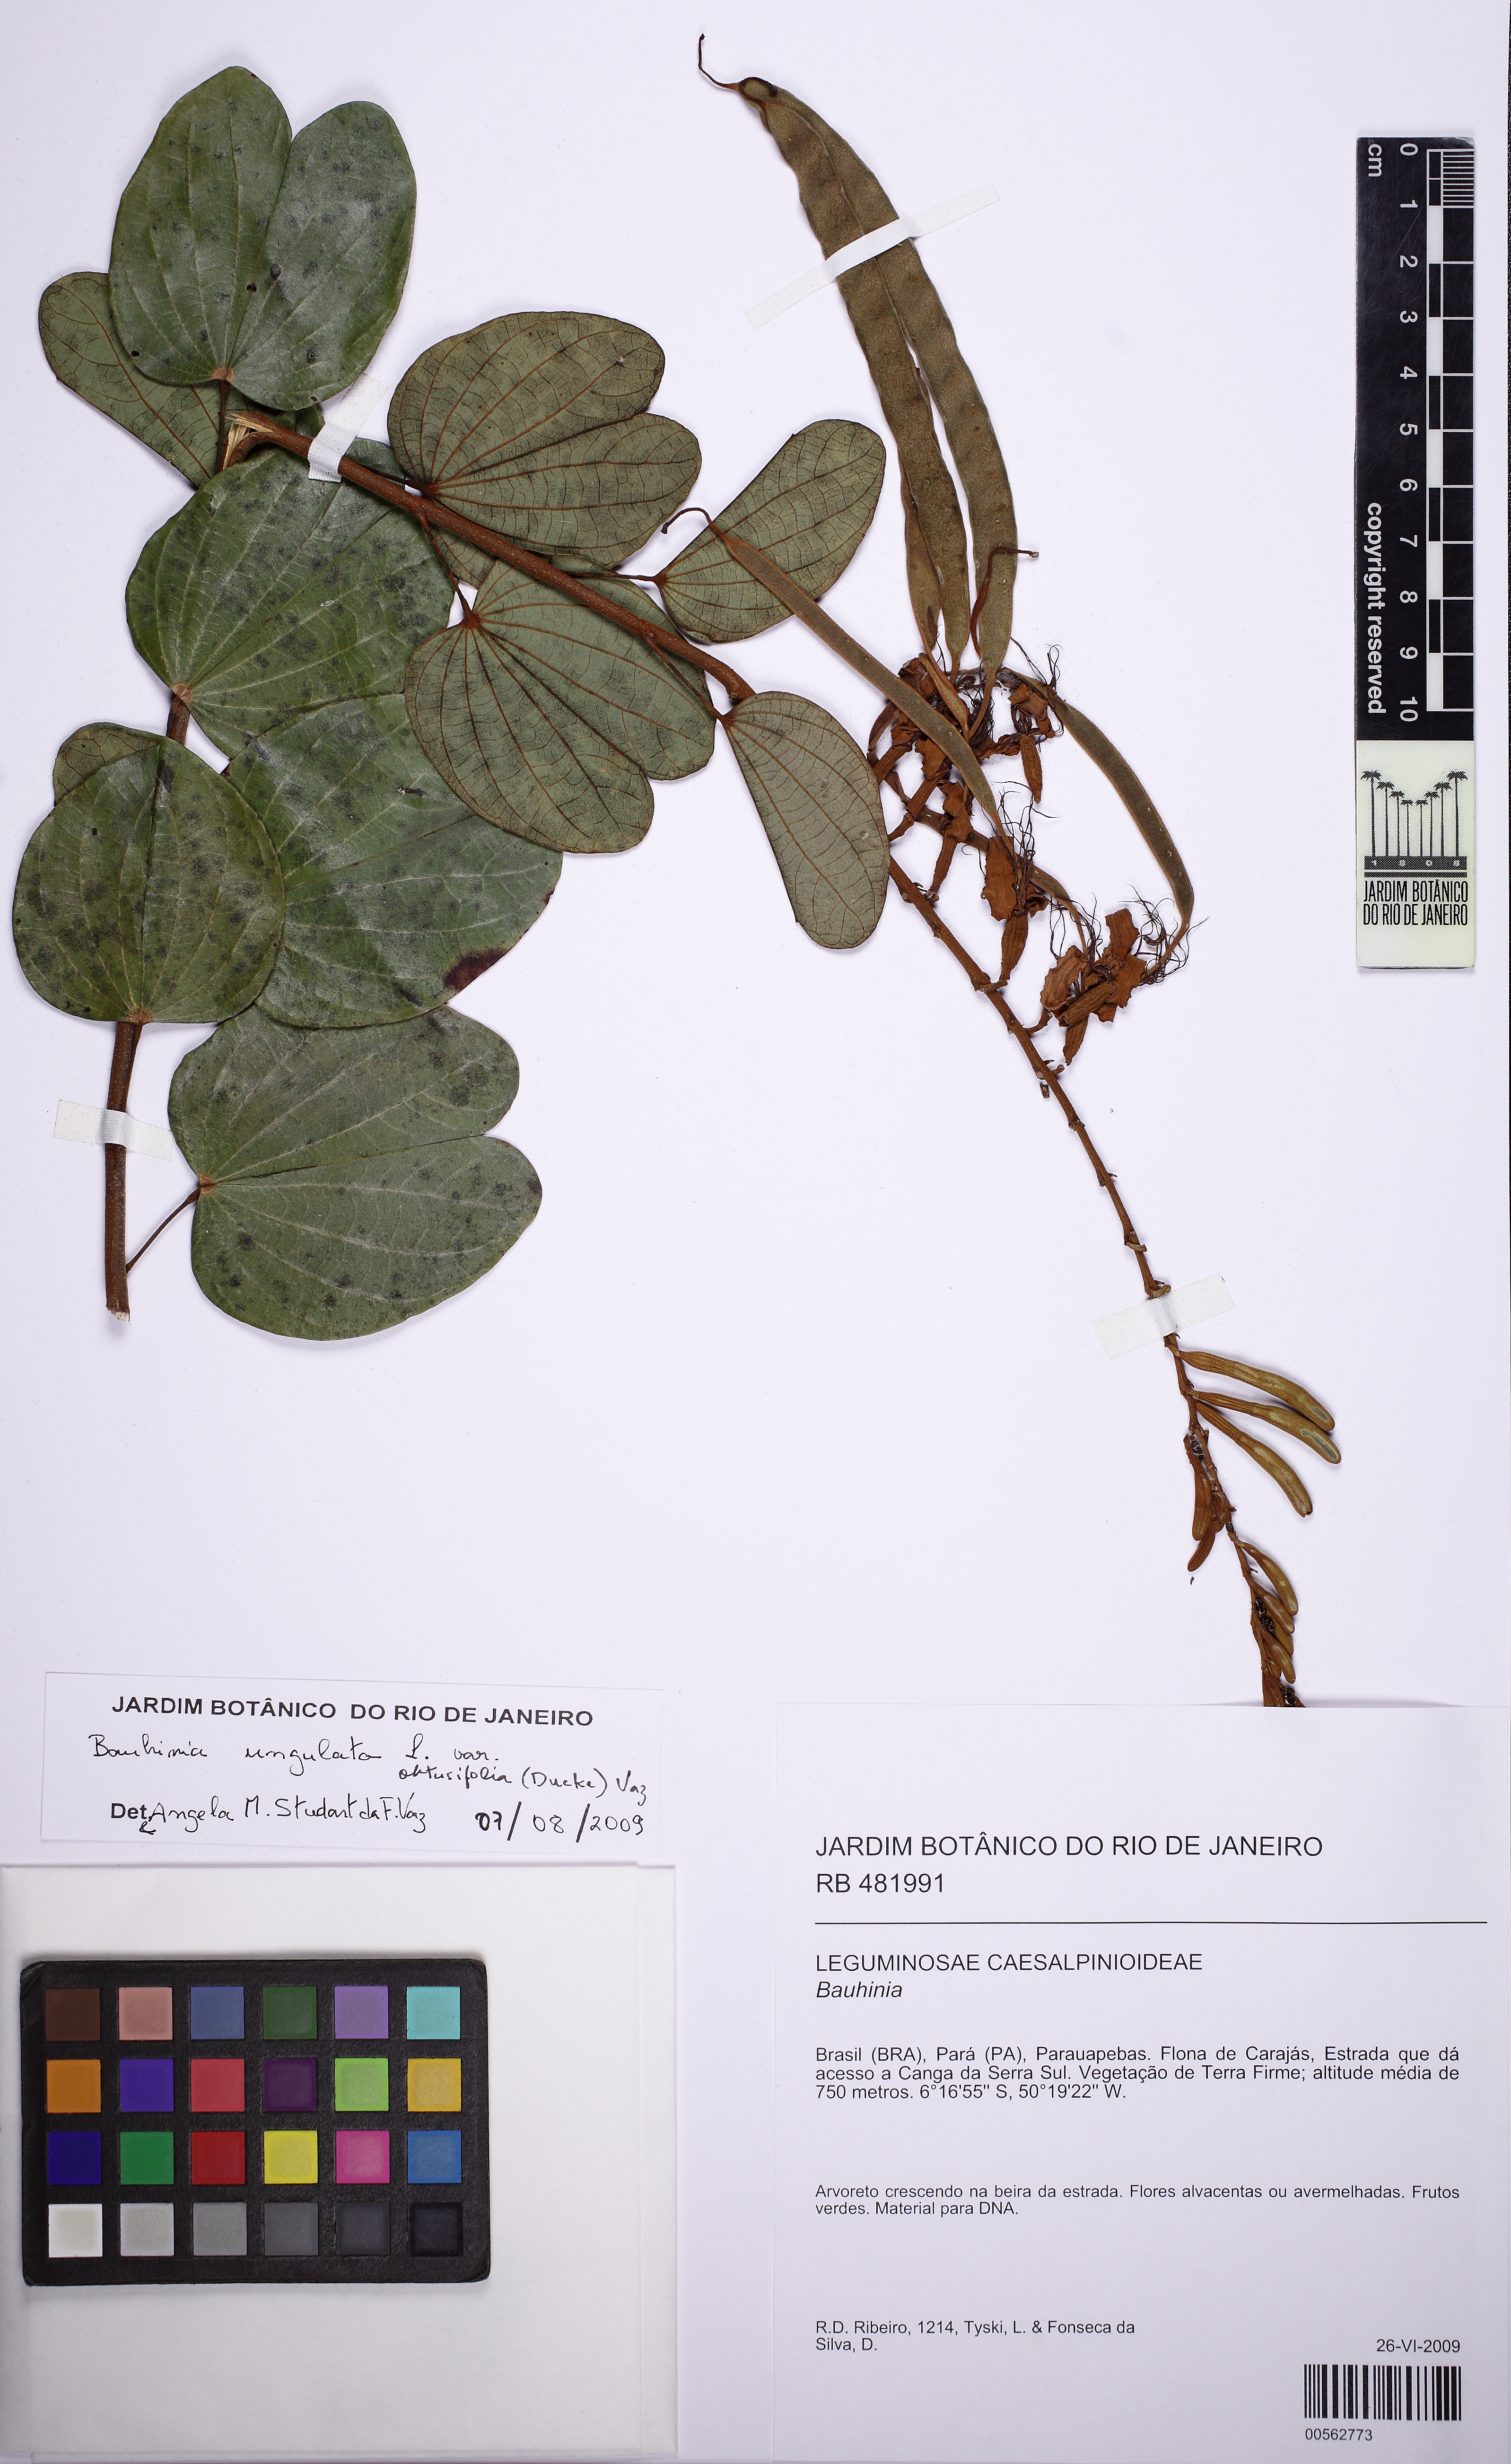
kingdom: Plantae
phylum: Tracheophyta
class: Magnoliopsida
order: Fabales
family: Fabaceae
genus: Bauhinia
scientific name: Bauhinia ungulata
